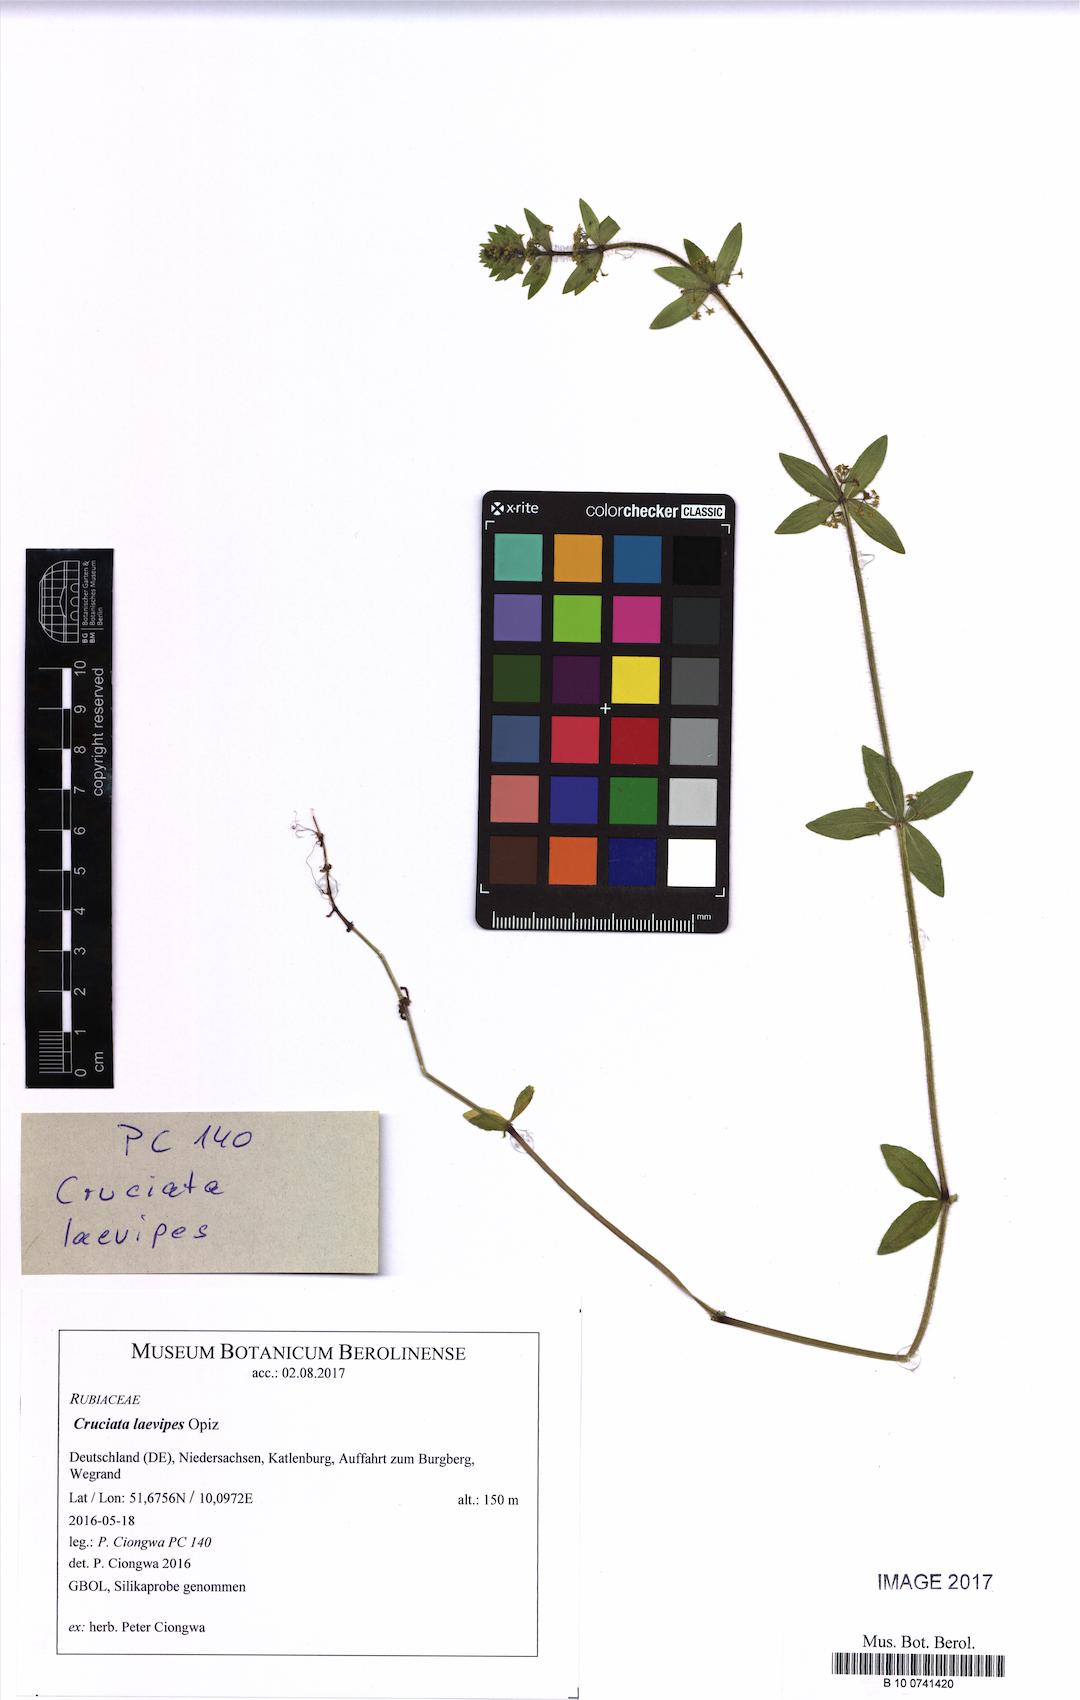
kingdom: Plantae
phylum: Tracheophyta
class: Magnoliopsida
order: Gentianales
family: Rubiaceae
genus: Cruciata
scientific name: Cruciata laevipes
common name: Crosswort
